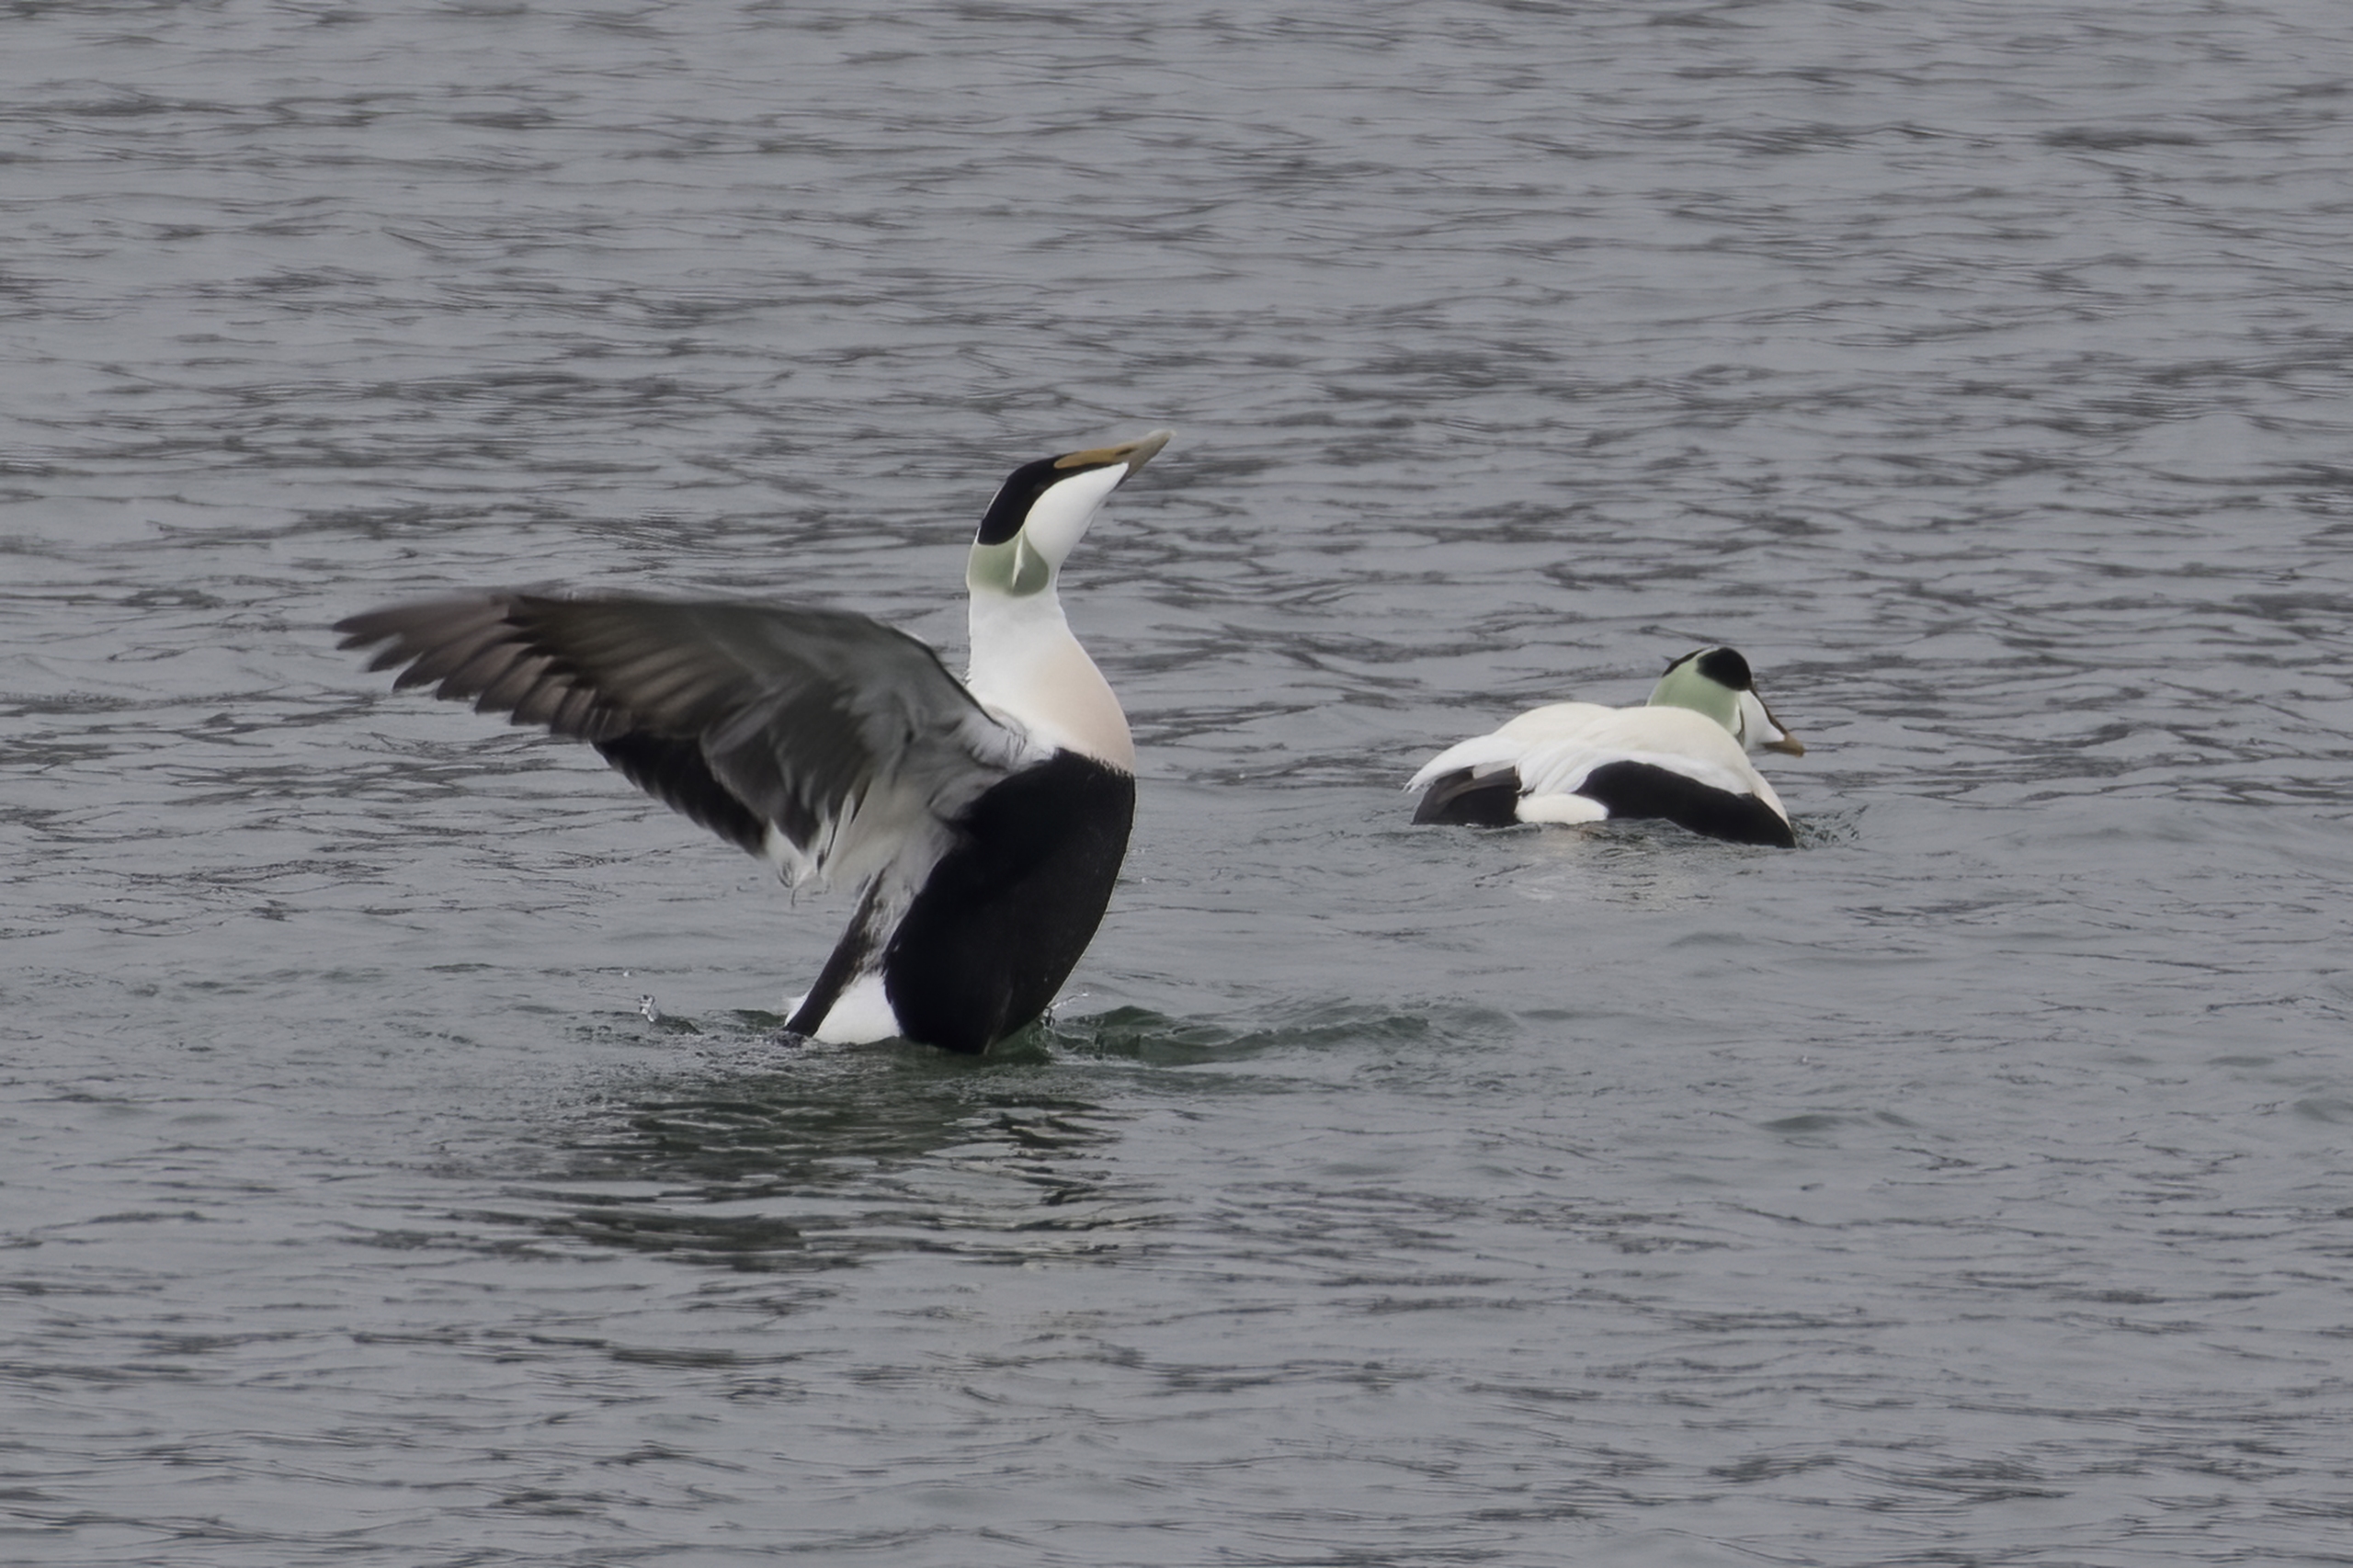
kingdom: Animalia
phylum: Chordata
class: Aves
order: Anseriformes
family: Anatidae
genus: Somateria
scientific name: Somateria mollissima
